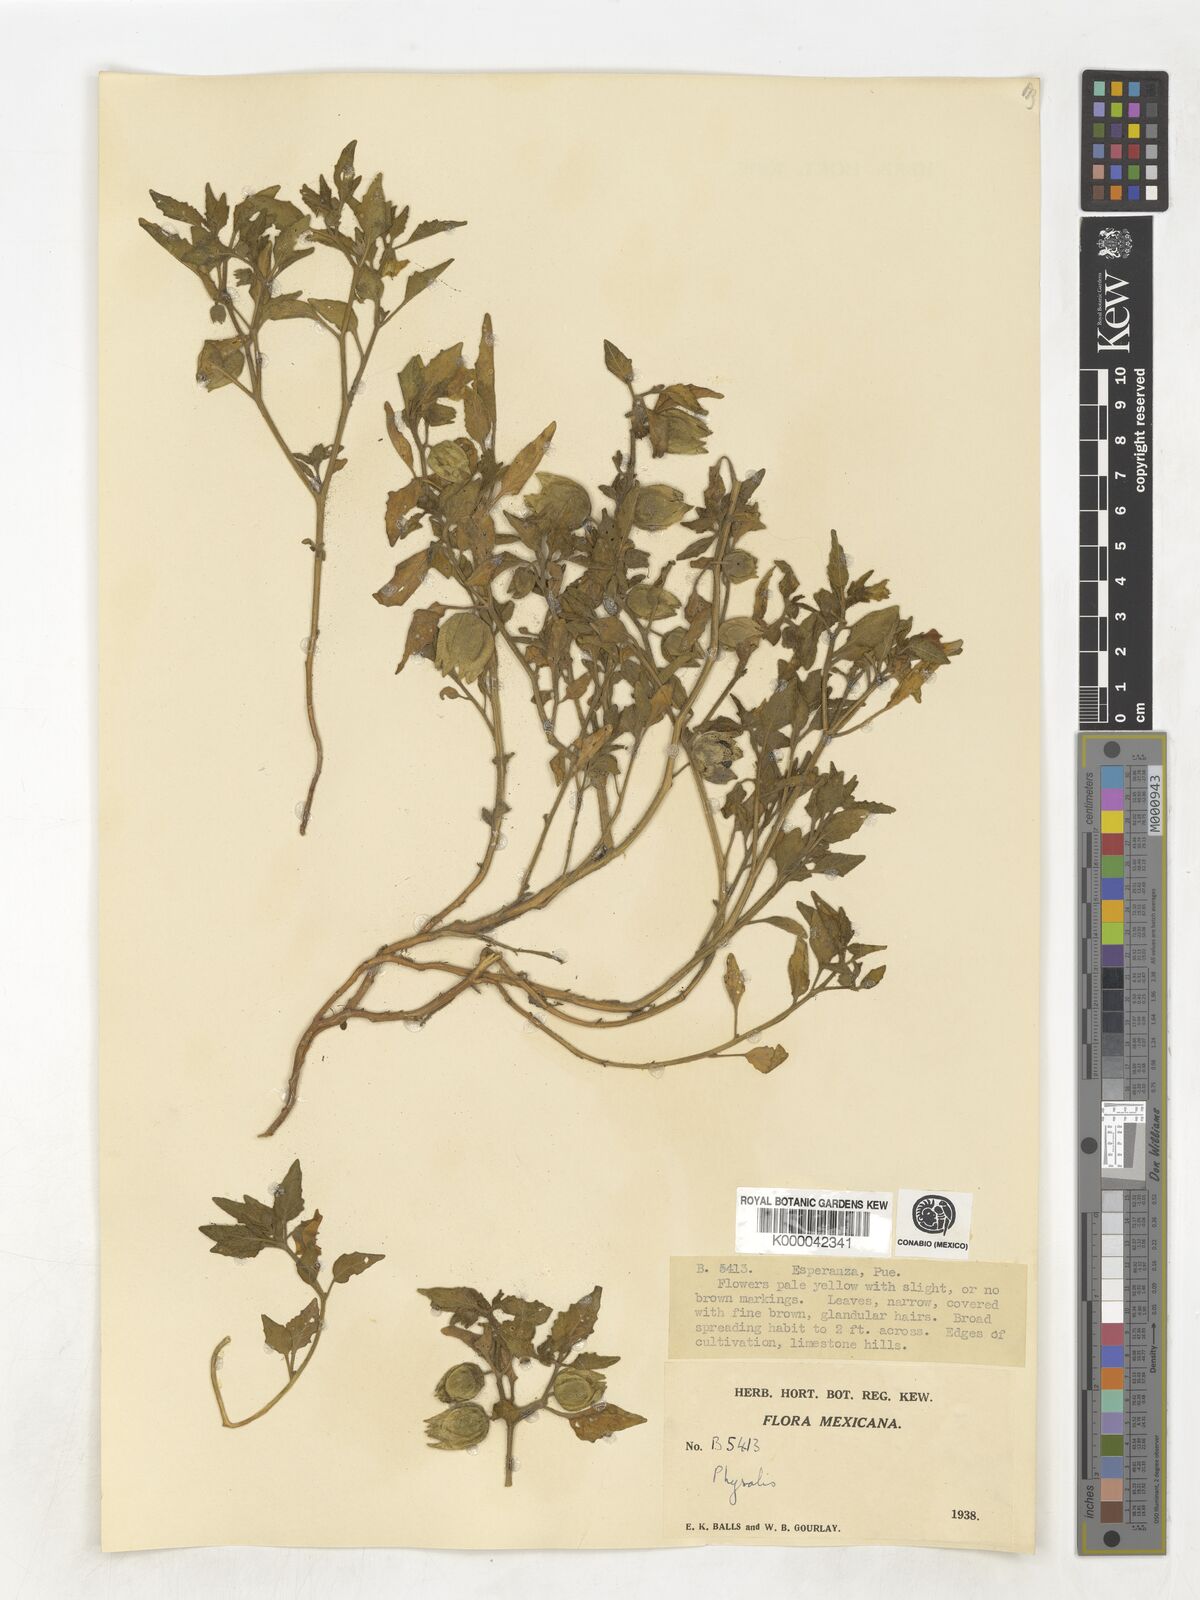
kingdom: Plantae
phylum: Tracheophyta
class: Magnoliopsida
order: Solanales
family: Solanaceae
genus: Physalis
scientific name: Physalis
